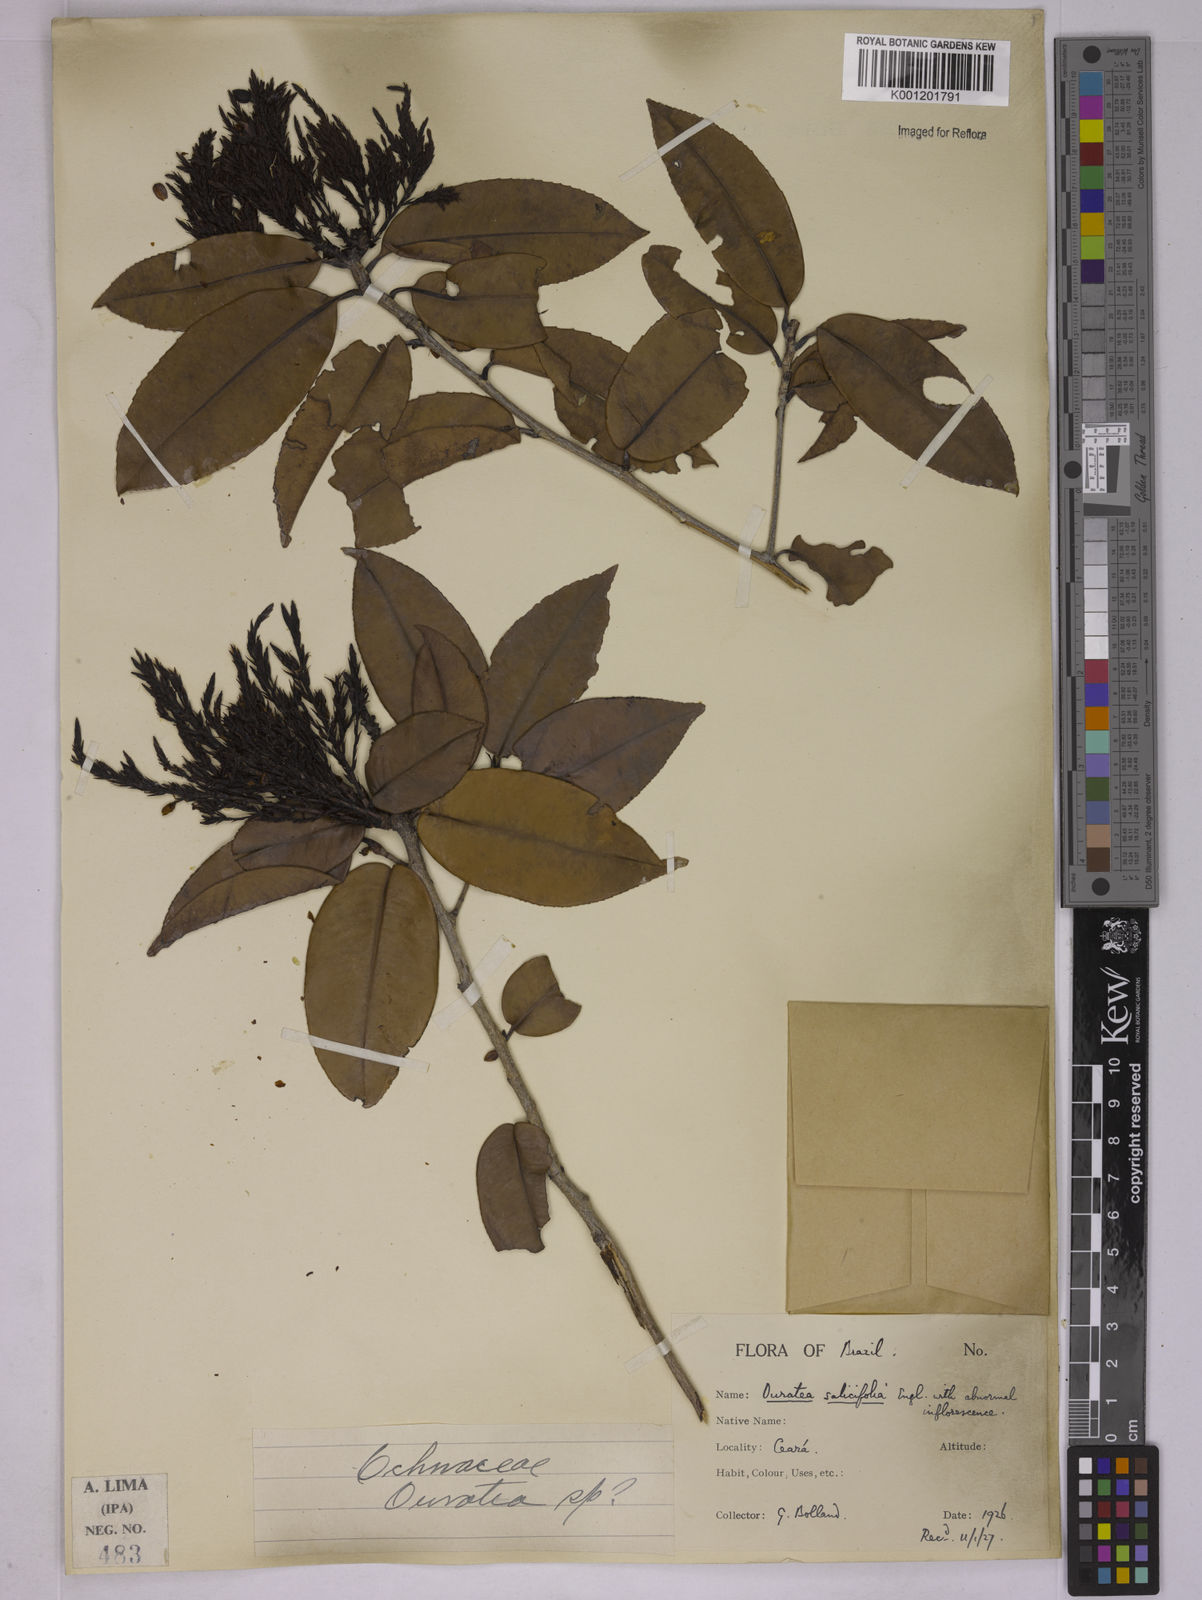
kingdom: Plantae
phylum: Tracheophyta
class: Magnoliopsida
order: Malpighiales
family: Ochnaceae
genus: Ouratea
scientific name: Ouratea salicifolia
